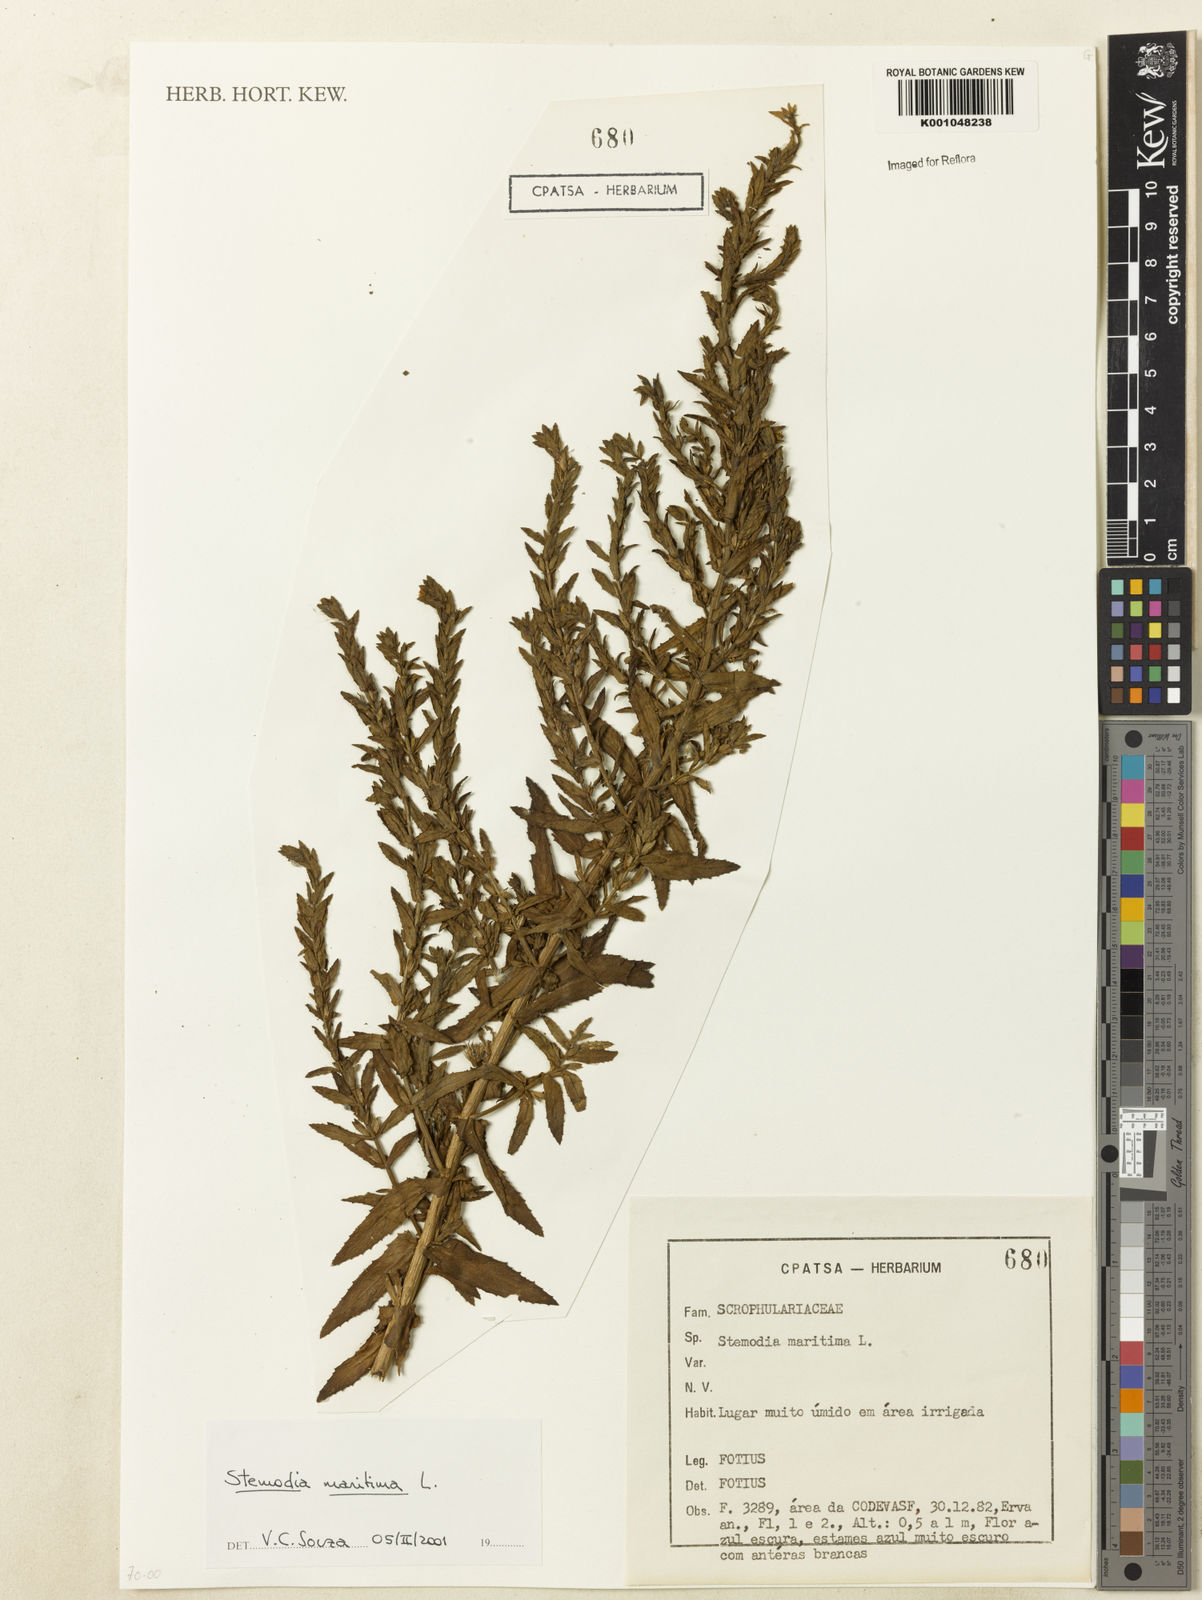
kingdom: Plantae
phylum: Tracheophyta
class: Magnoliopsida
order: Lamiales
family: Plantaginaceae
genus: Stemodia
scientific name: Stemodia maritima
